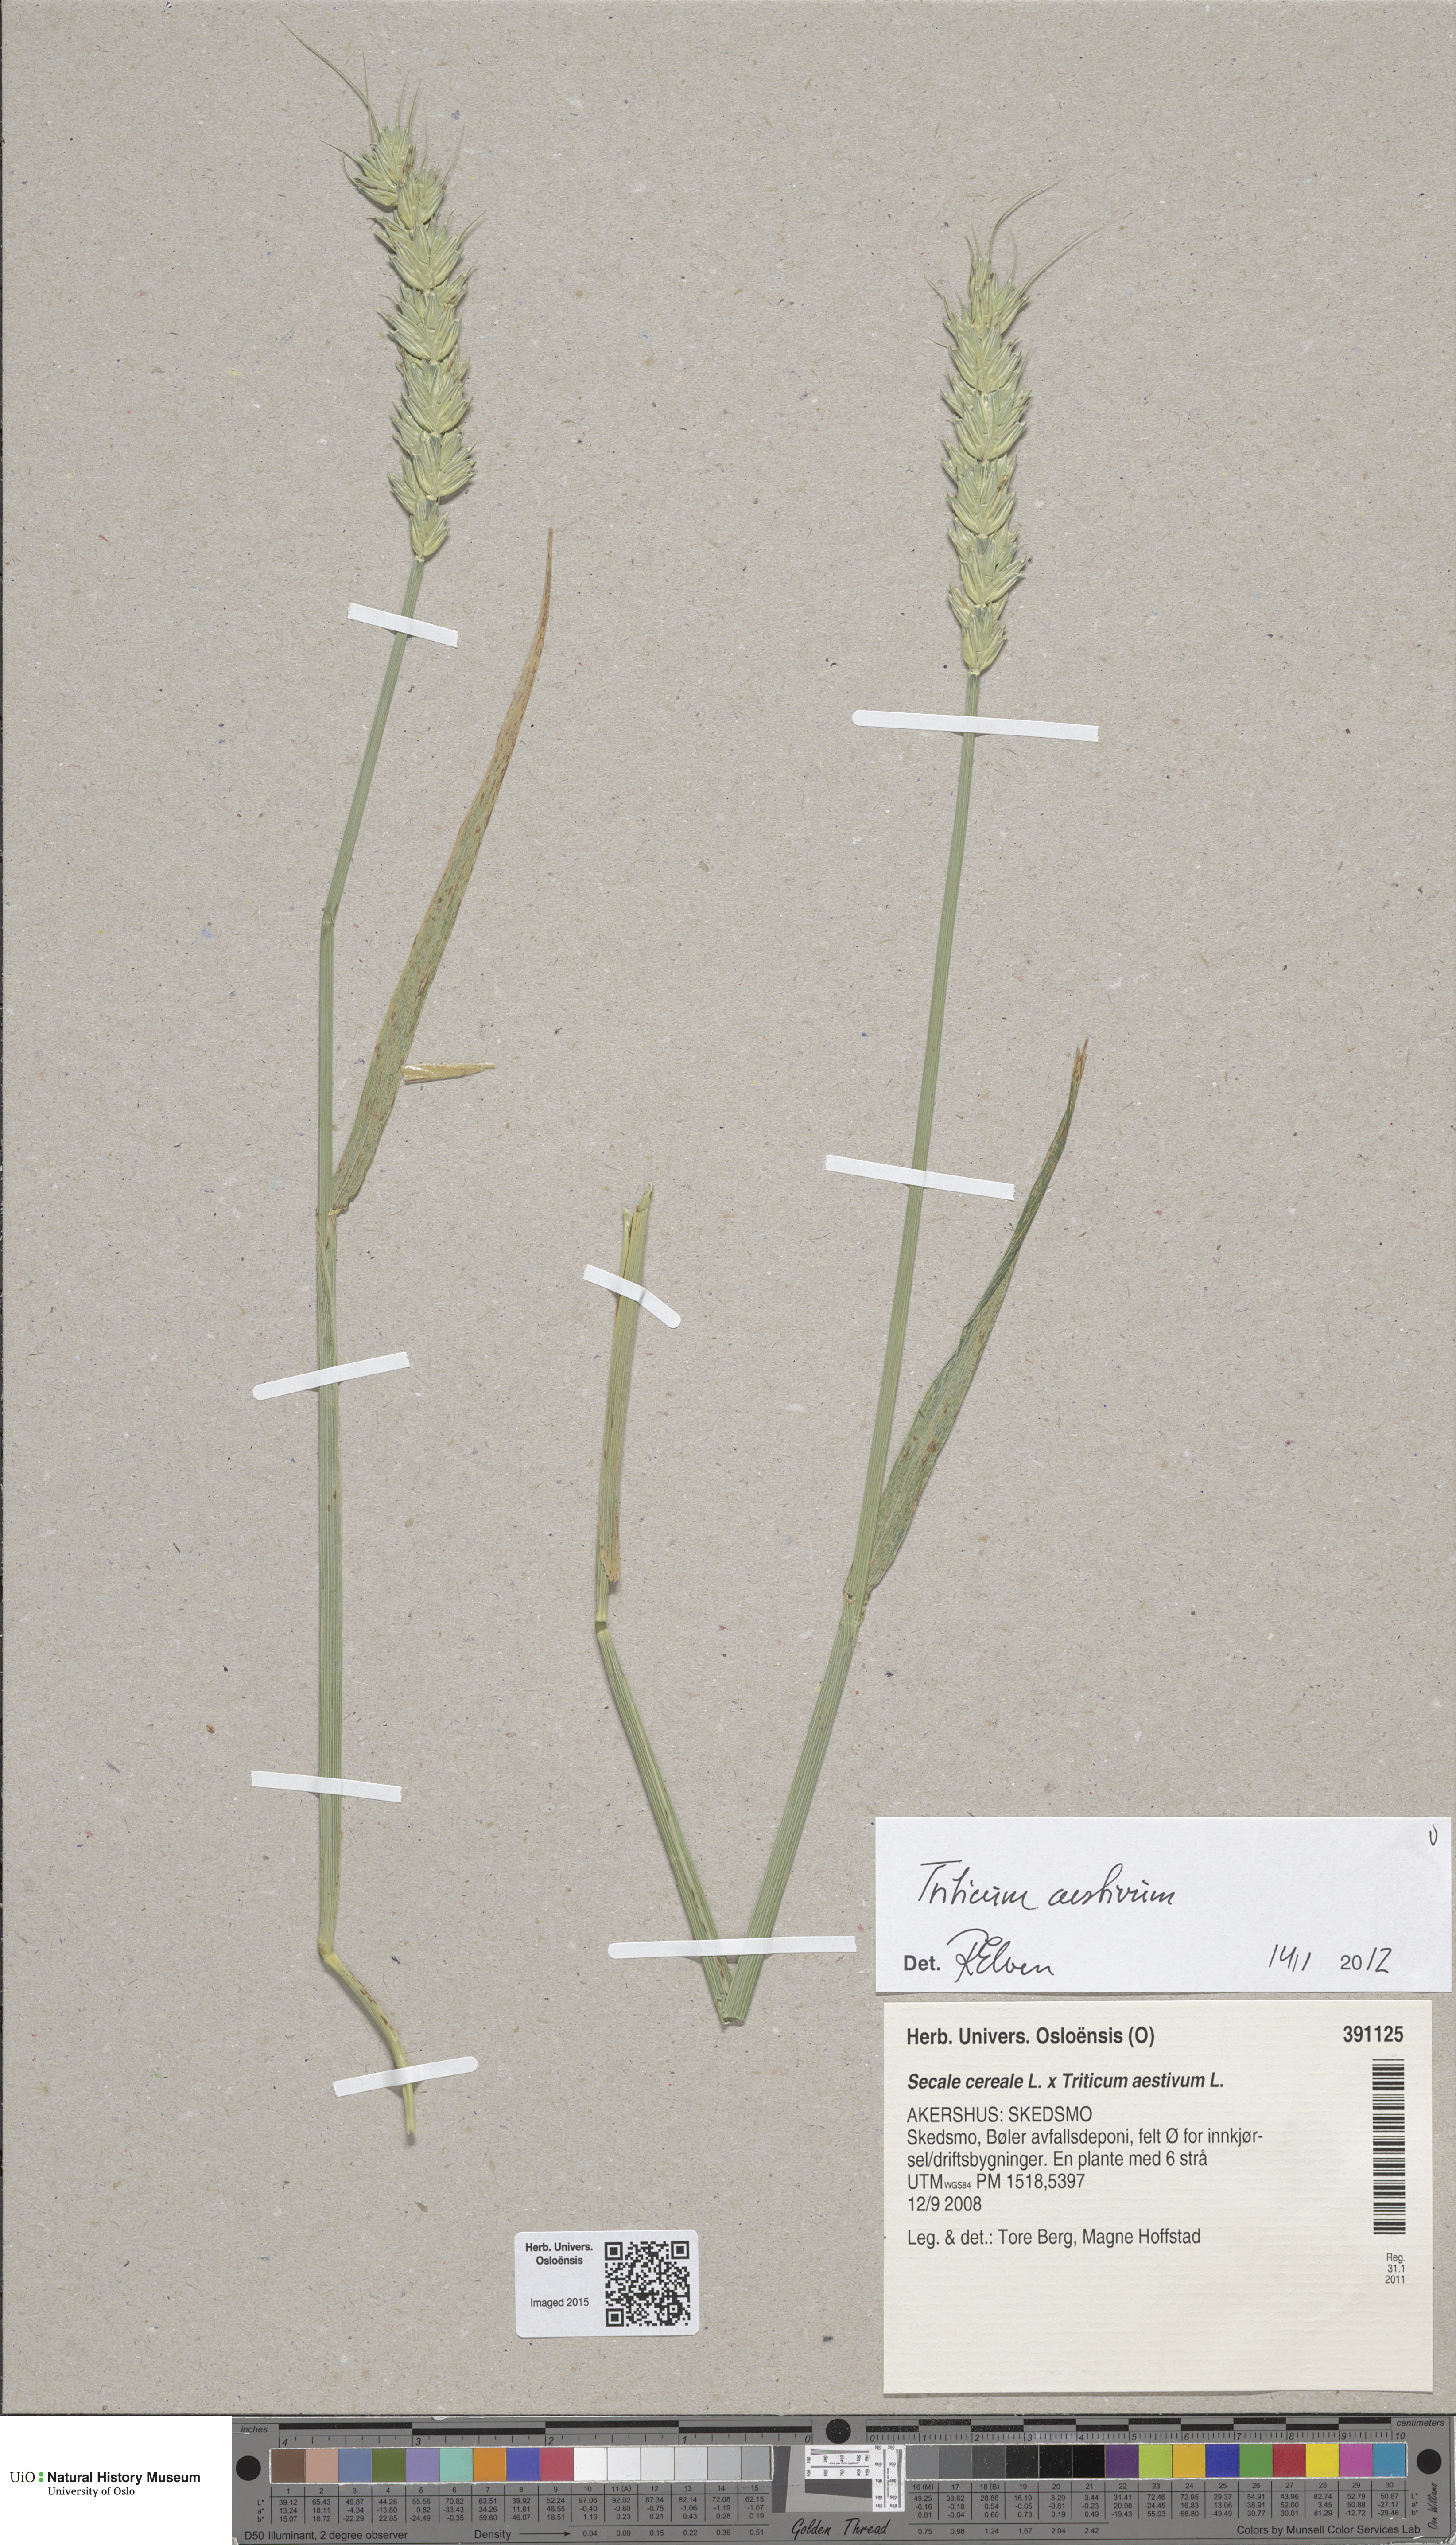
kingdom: Plantae
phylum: Tracheophyta
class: Liliopsida
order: Poales
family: Poaceae
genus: Triticum
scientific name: Triticum aestivum
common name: Common wheat
